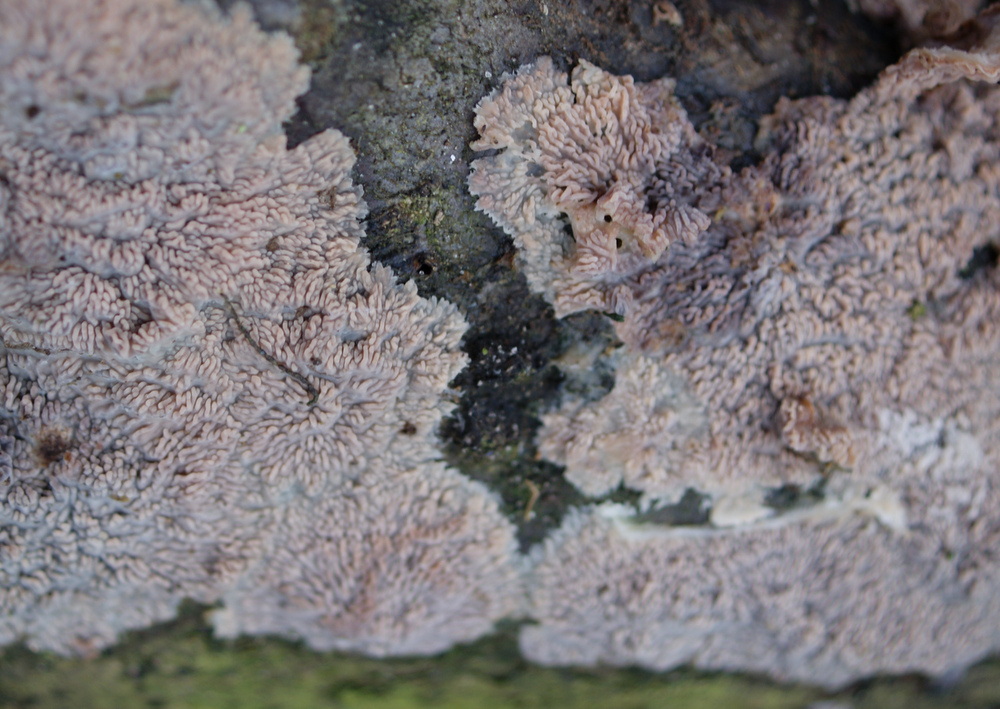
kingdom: Fungi
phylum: Basidiomycota
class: Agaricomycetes
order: Polyporales
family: Meruliaceae
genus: Phlebia
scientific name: Phlebia radiata
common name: stråle-åresvamp
